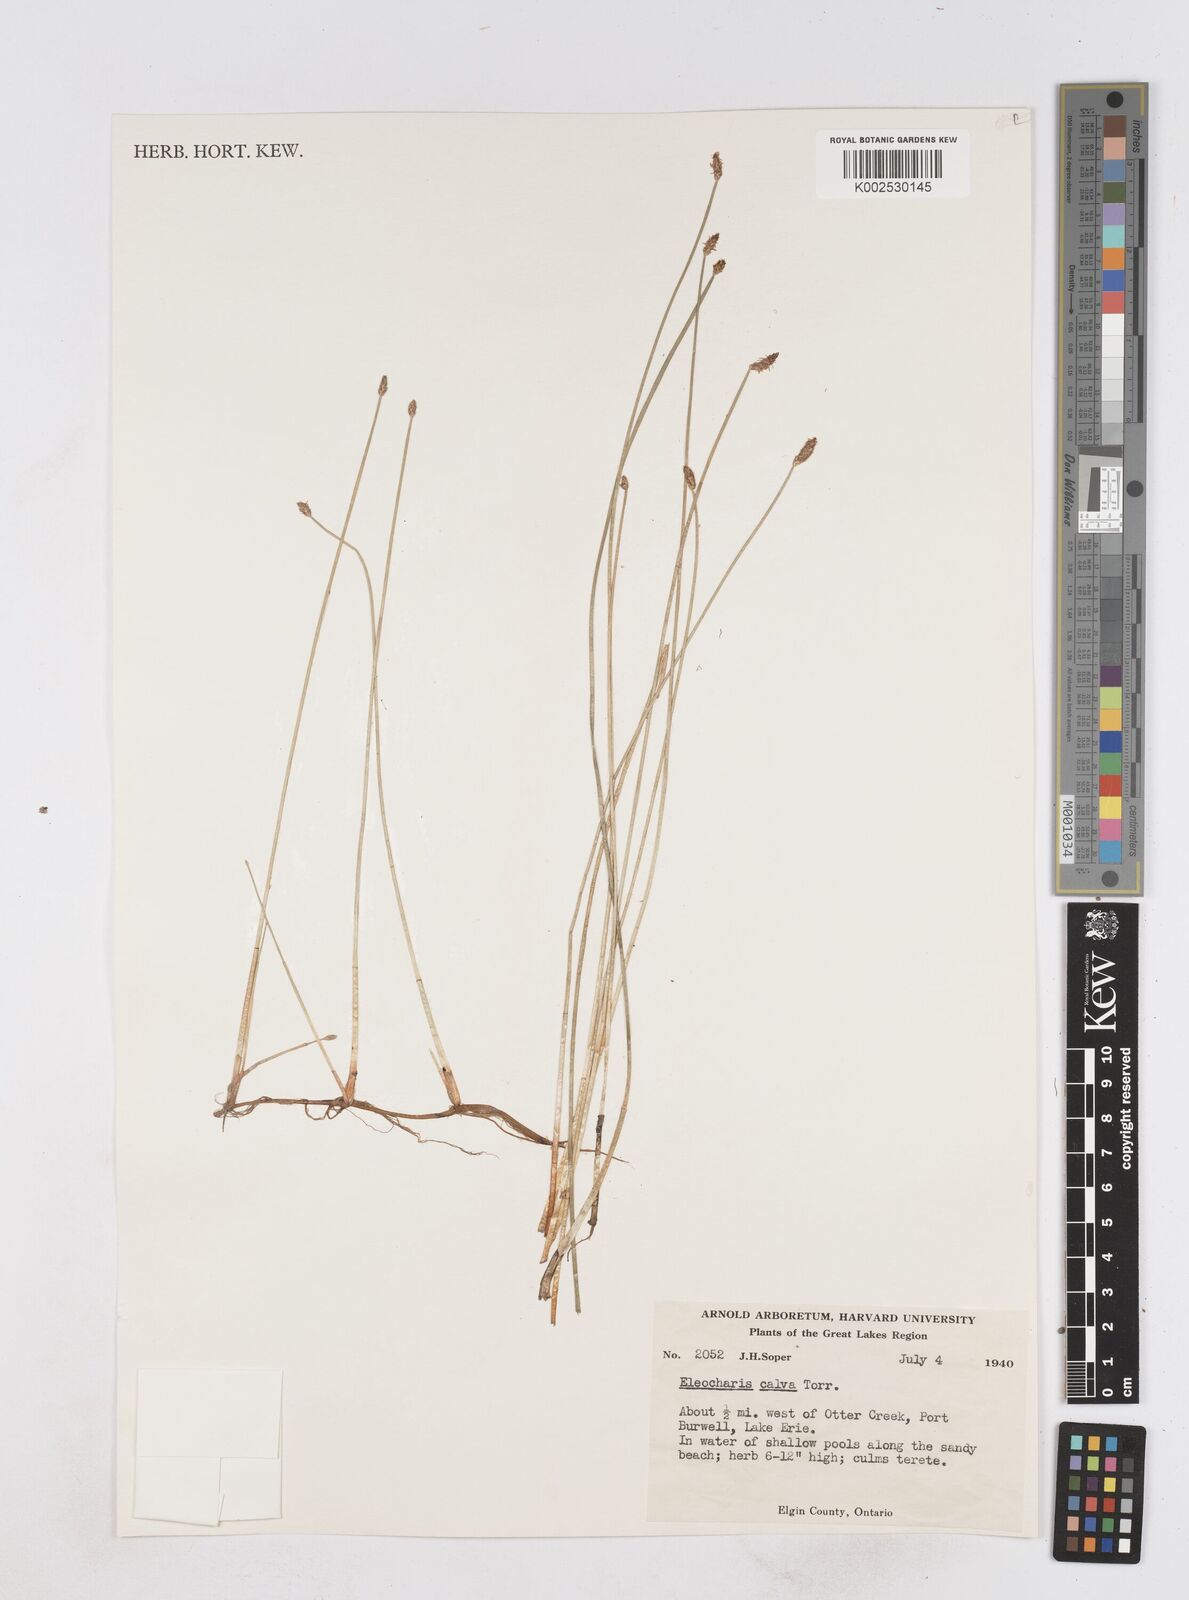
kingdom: Plantae
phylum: Tracheophyta
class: Liliopsida
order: Poales
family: Cyperaceae
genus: Eleocharis
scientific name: Eleocharis erythropoda
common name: Bald spikerush
